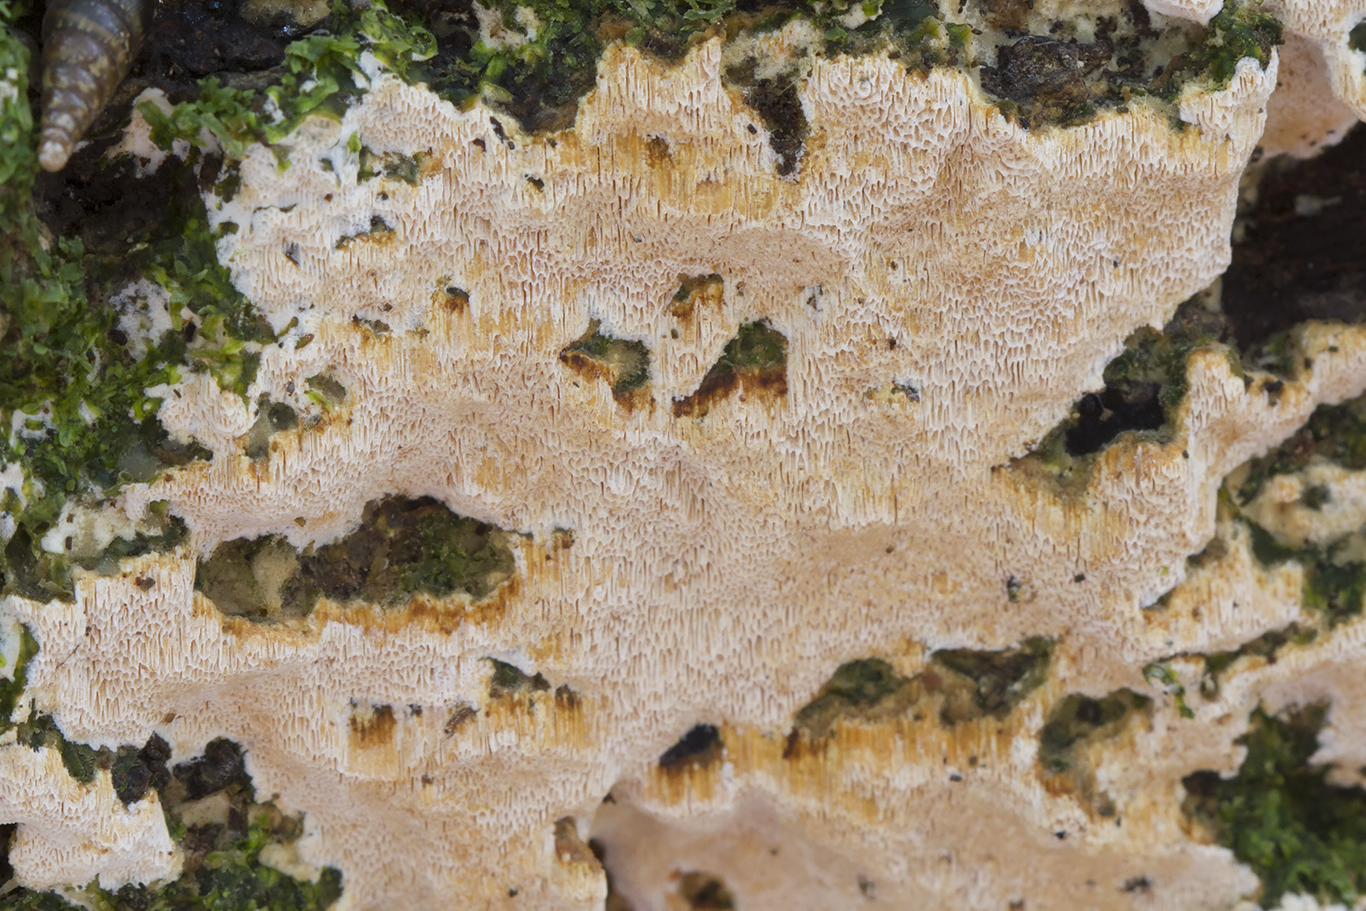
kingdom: Fungi
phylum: Basidiomycota
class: Agaricomycetes
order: Hymenochaetales
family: Schizoporaceae
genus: Xylodon
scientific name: Xylodon flaviporus
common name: gulporet tandsvamp
